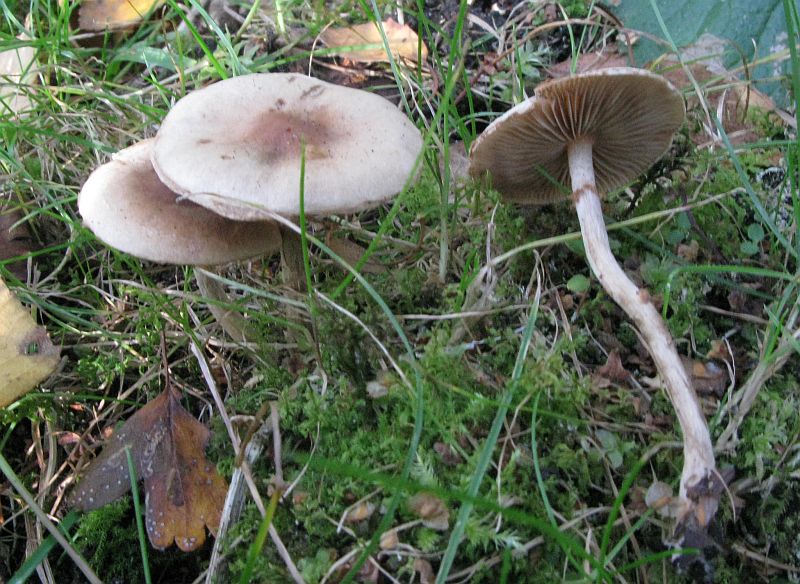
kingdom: Fungi
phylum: Basidiomycota
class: Agaricomycetes
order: Agaricales
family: Hymenogastraceae
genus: Hebeloma
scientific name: Hebeloma mesophaeum
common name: lerbrun tåreblad
